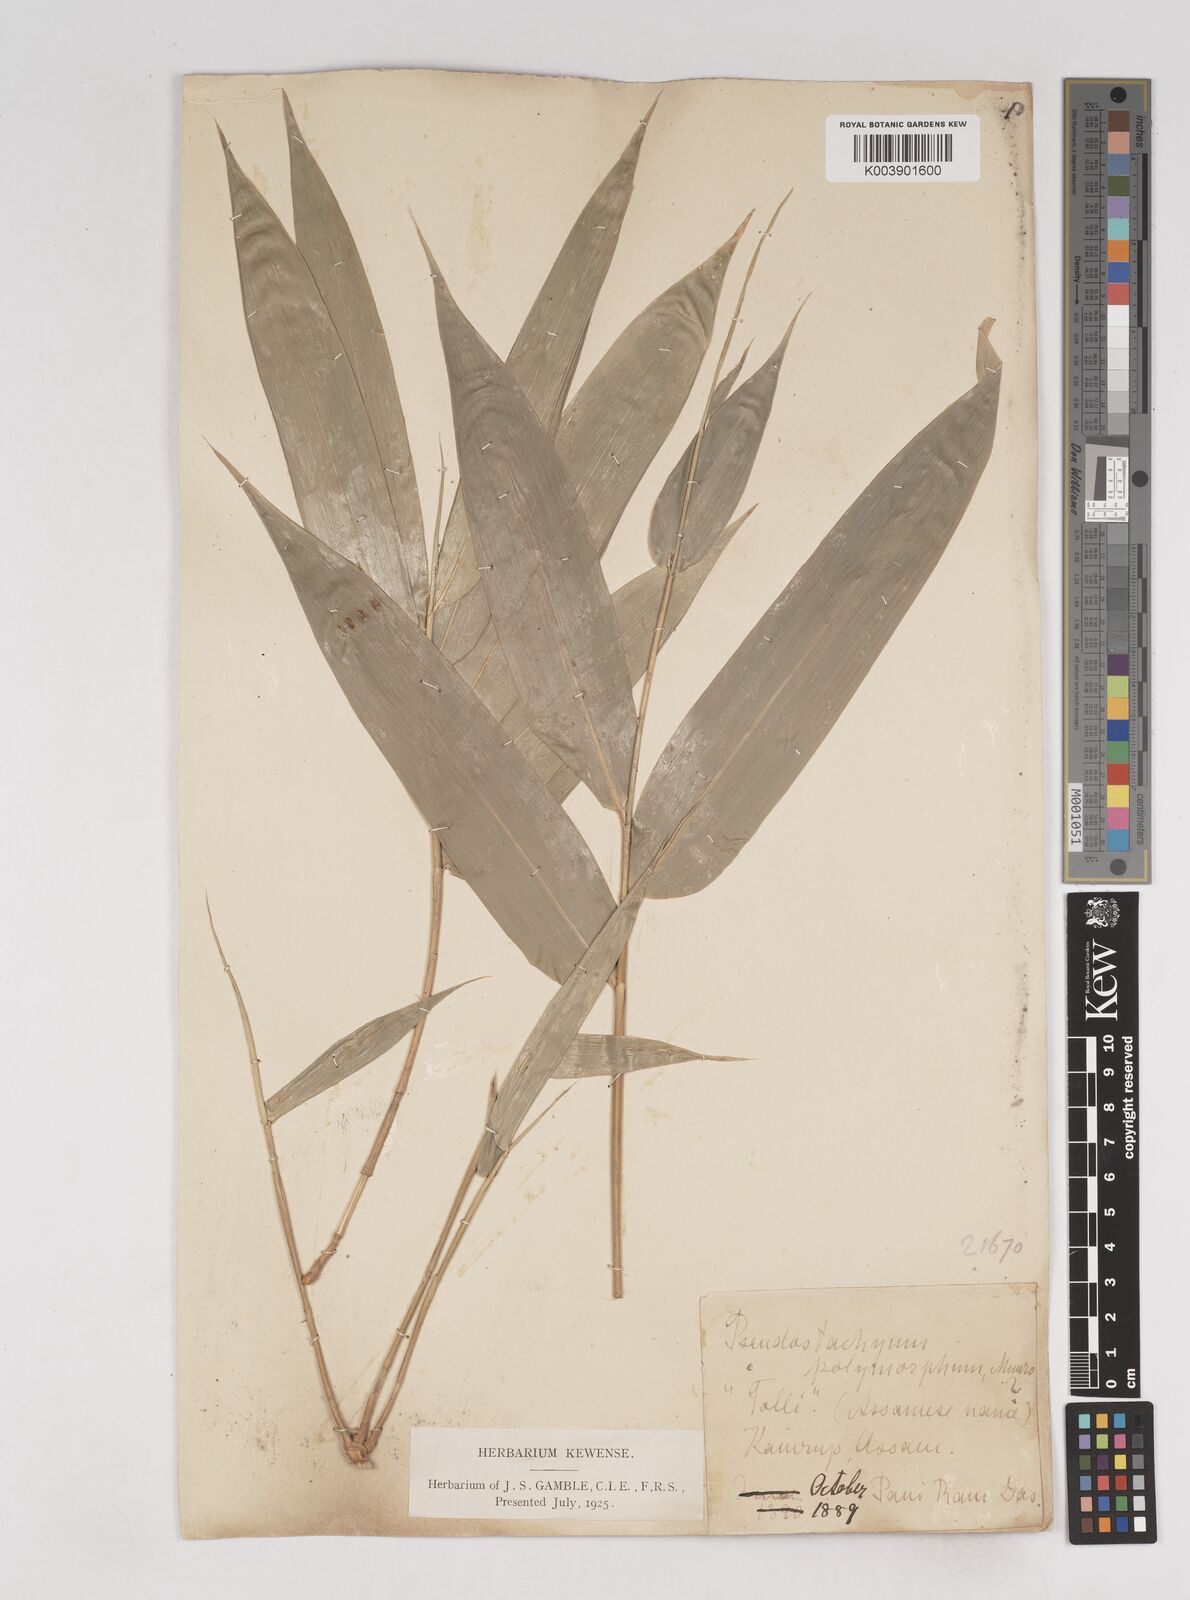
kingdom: Plantae
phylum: Tracheophyta
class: Liliopsida
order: Poales
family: Poaceae
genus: Pseudostachyum
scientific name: Pseudostachyum polymorphum
